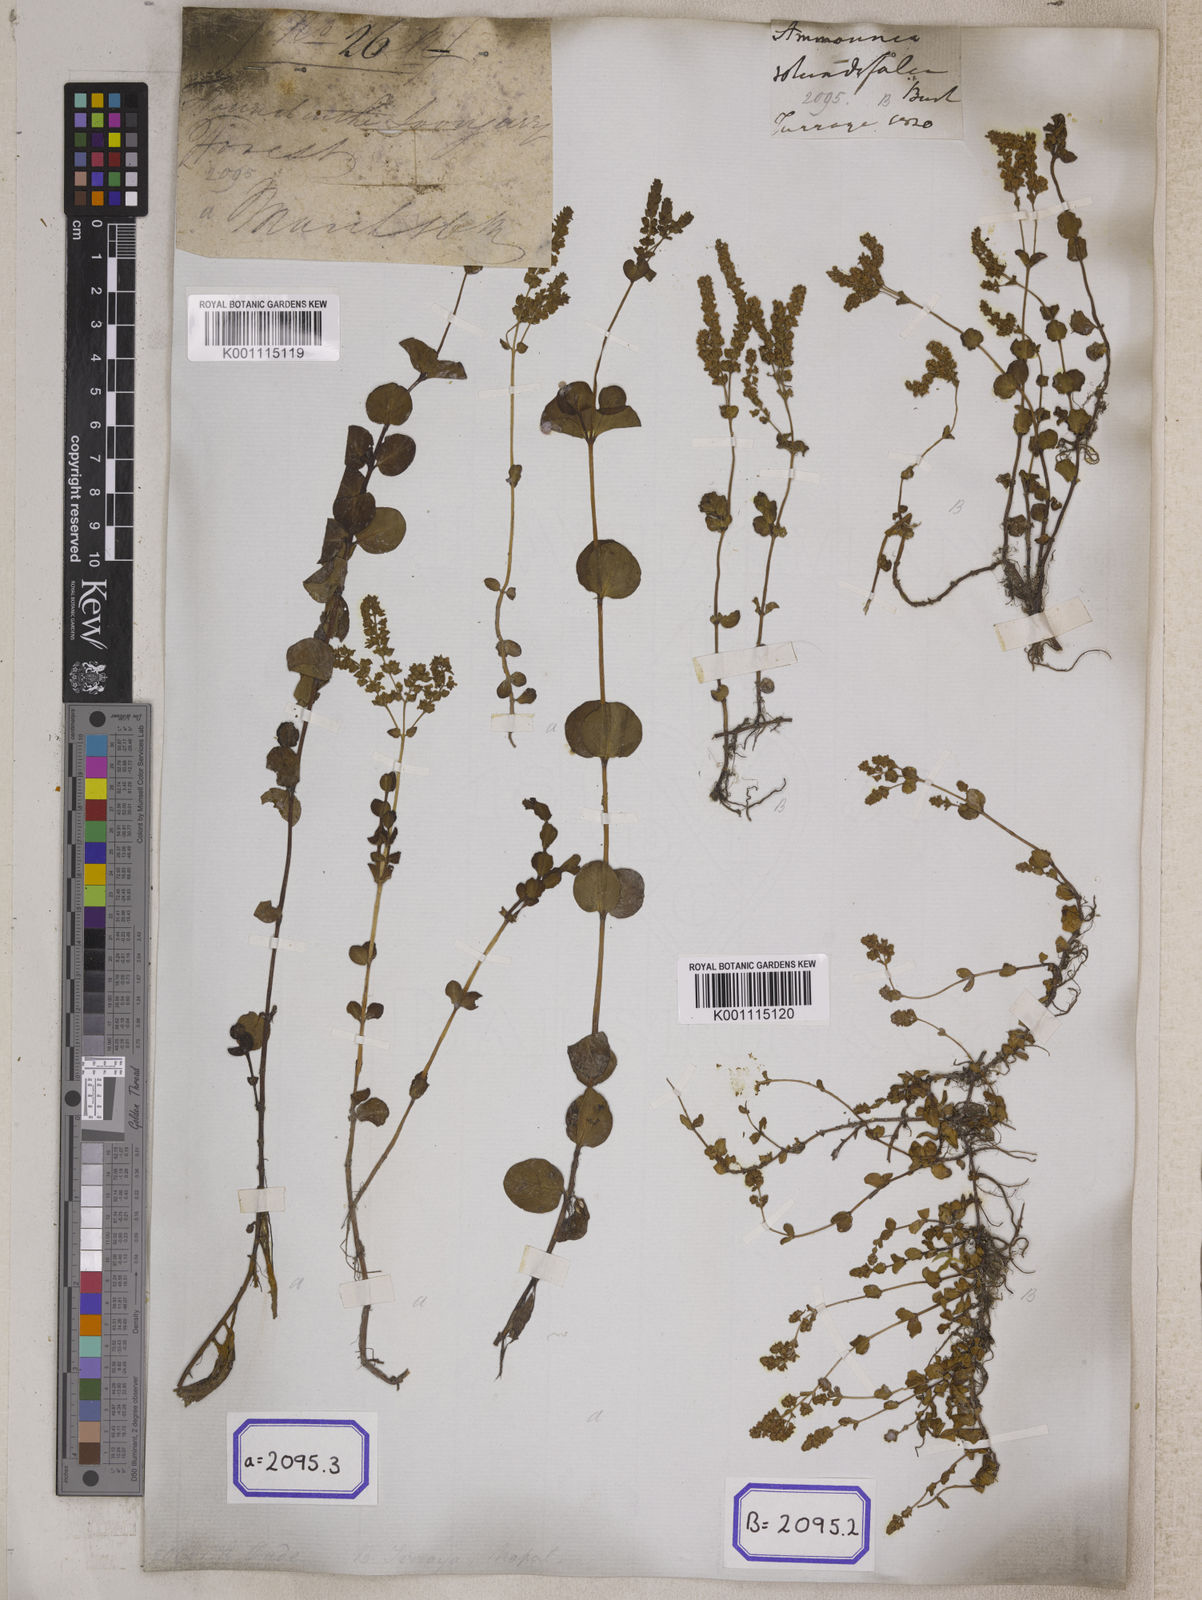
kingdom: Plantae
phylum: Tracheophyta
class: Magnoliopsida
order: Myrtales
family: Lythraceae
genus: Ammannia
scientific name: Ammannia
